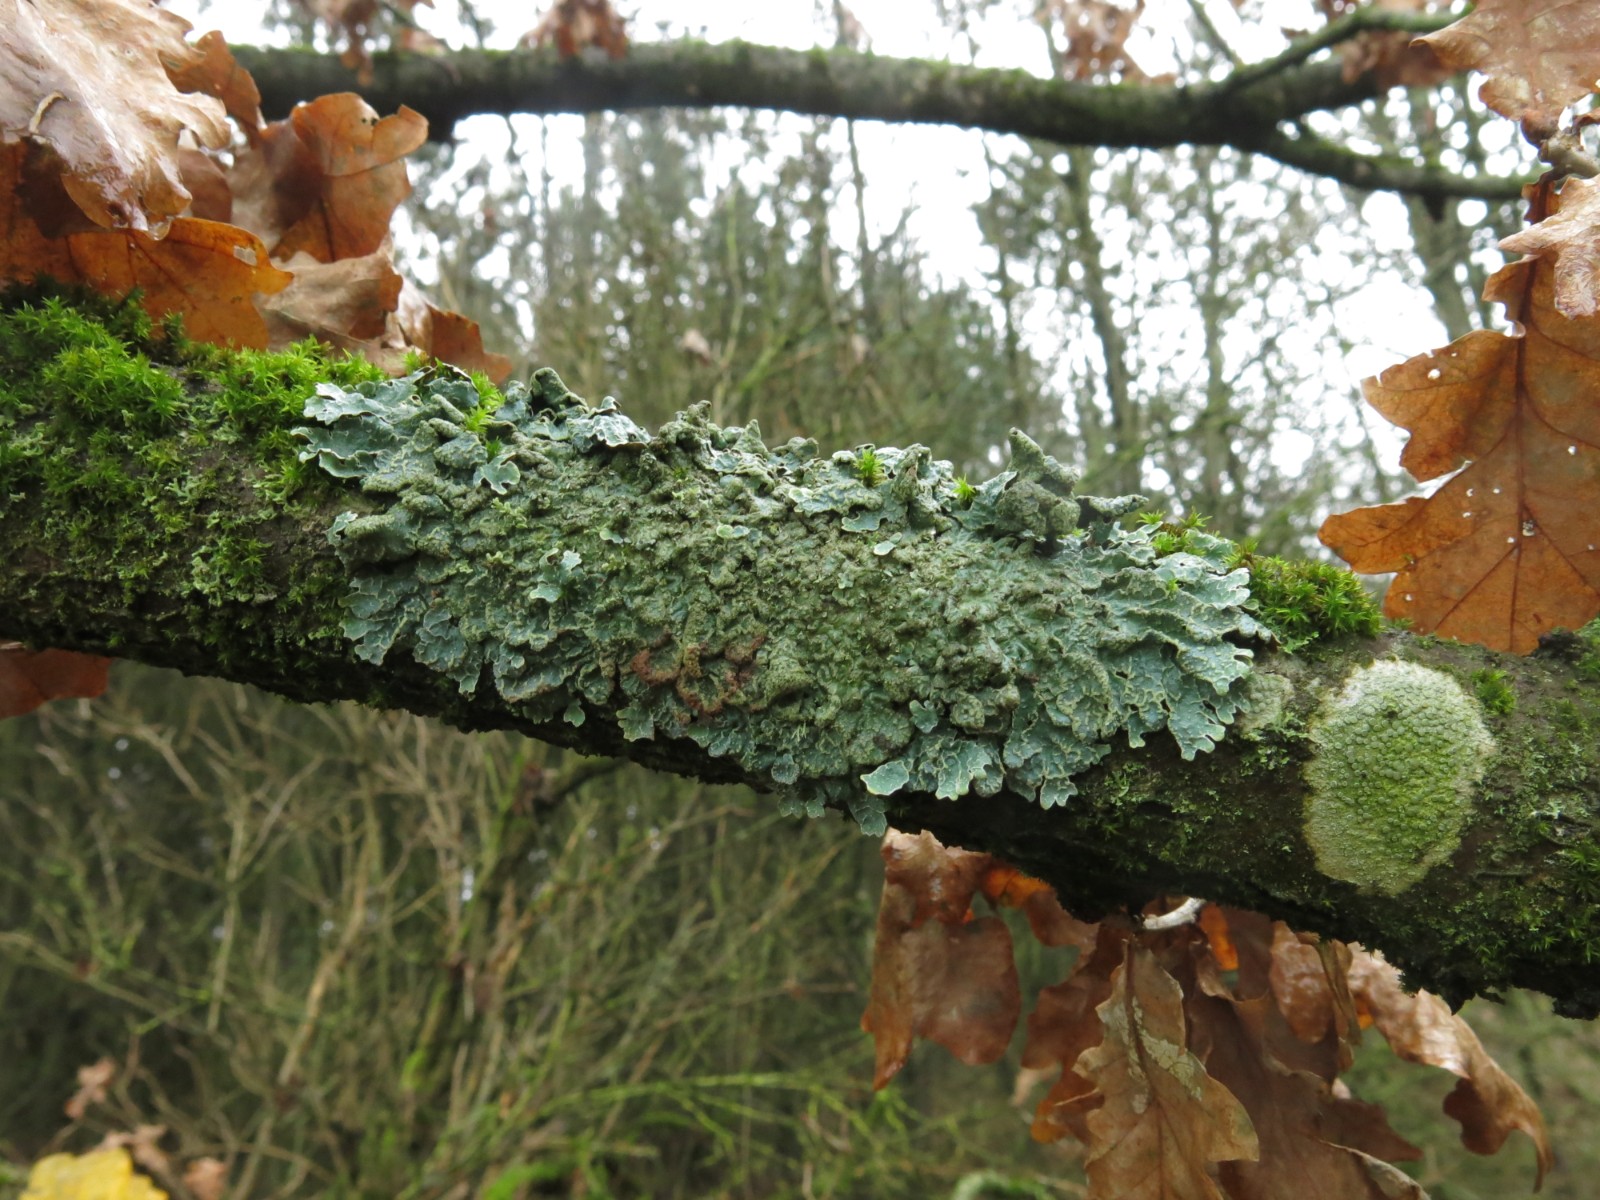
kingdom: Fungi
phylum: Ascomycota
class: Lecanoromycetes
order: Lecanorales
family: Parmeliaceae
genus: Parmelia
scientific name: Parmelia sulcata
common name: rynket skållav
